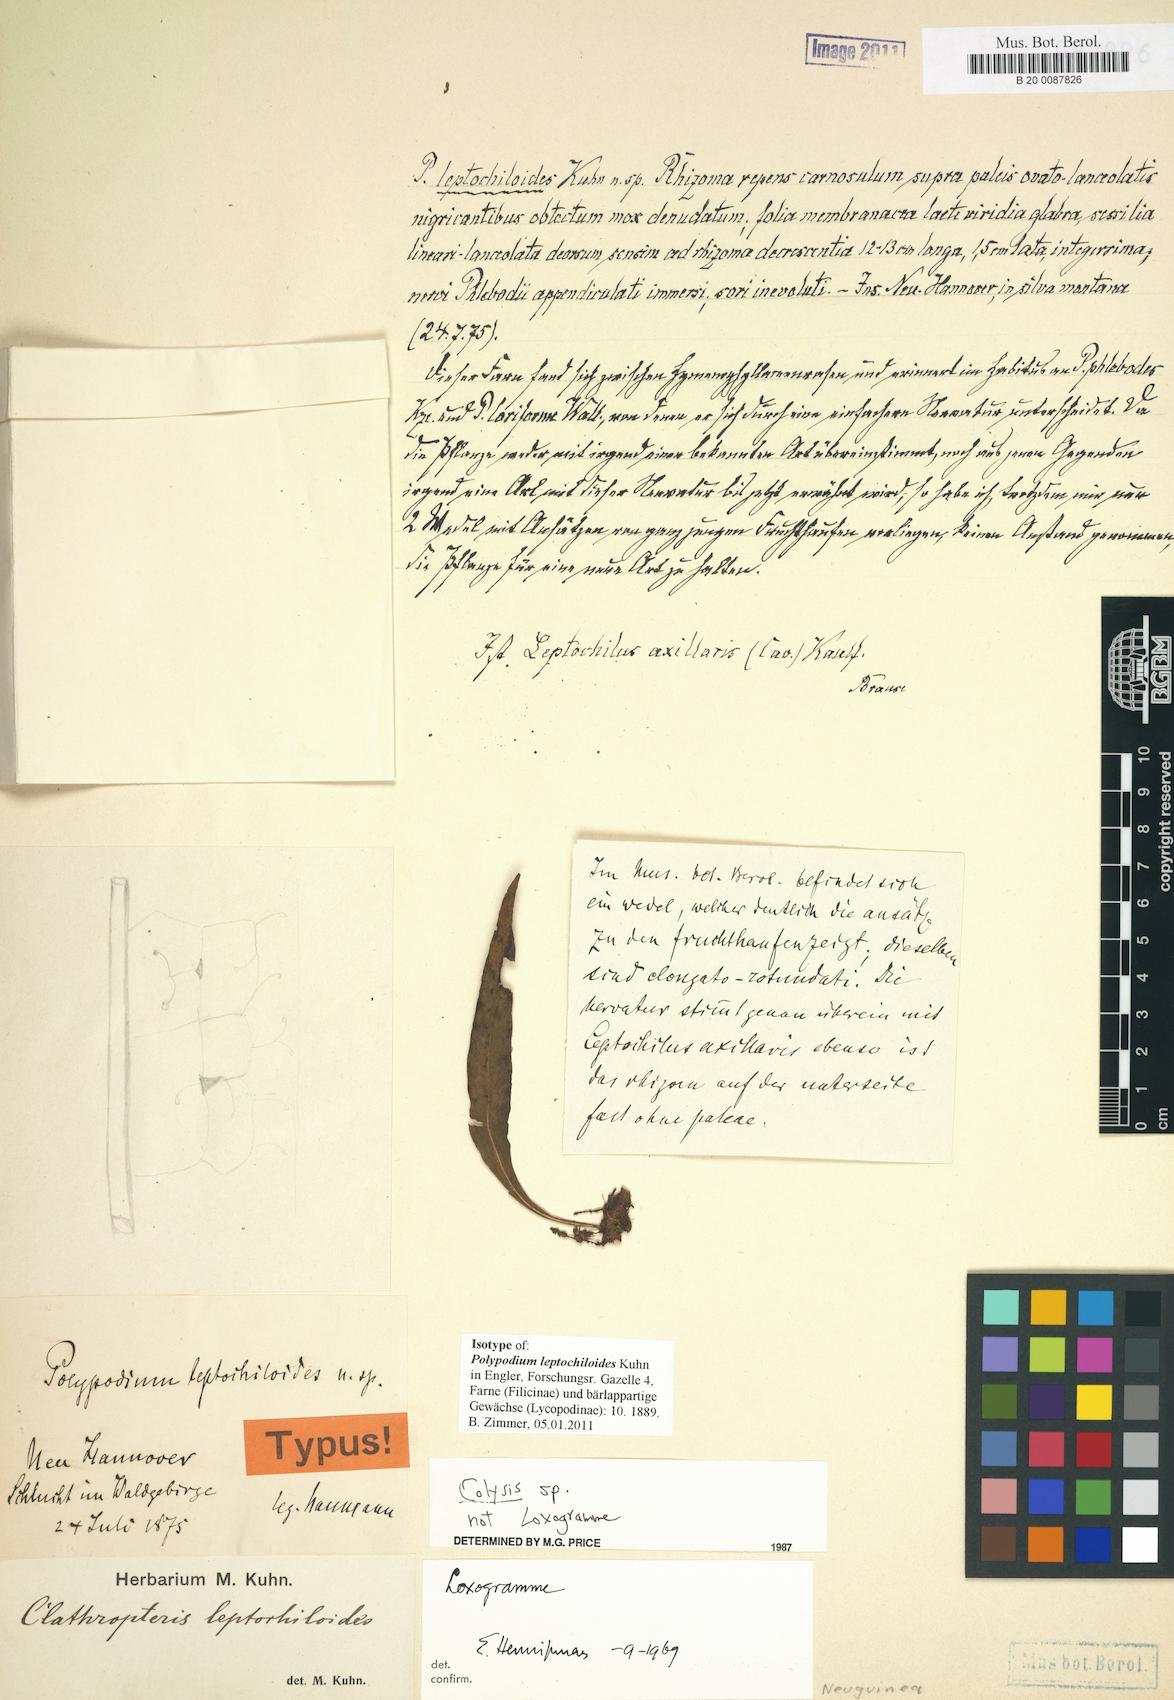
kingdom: Plantae
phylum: Tracheophyta
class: Polypodiopsida
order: Polypodiales
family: Polypodiaceae
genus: Leptochilus
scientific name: Leptochilus axillaris
